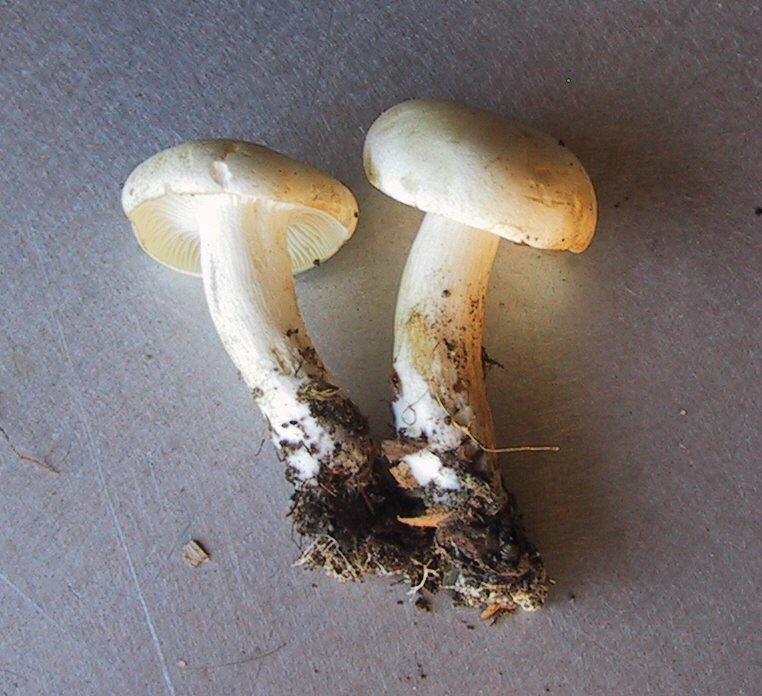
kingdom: Fungi
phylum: Basidiomycota
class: Agaricomycetes
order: Agaricales
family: Hygrophoraceae
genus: Hygrophorus
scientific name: Hygrophorus eburneus
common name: elfenbens-sneglehat
